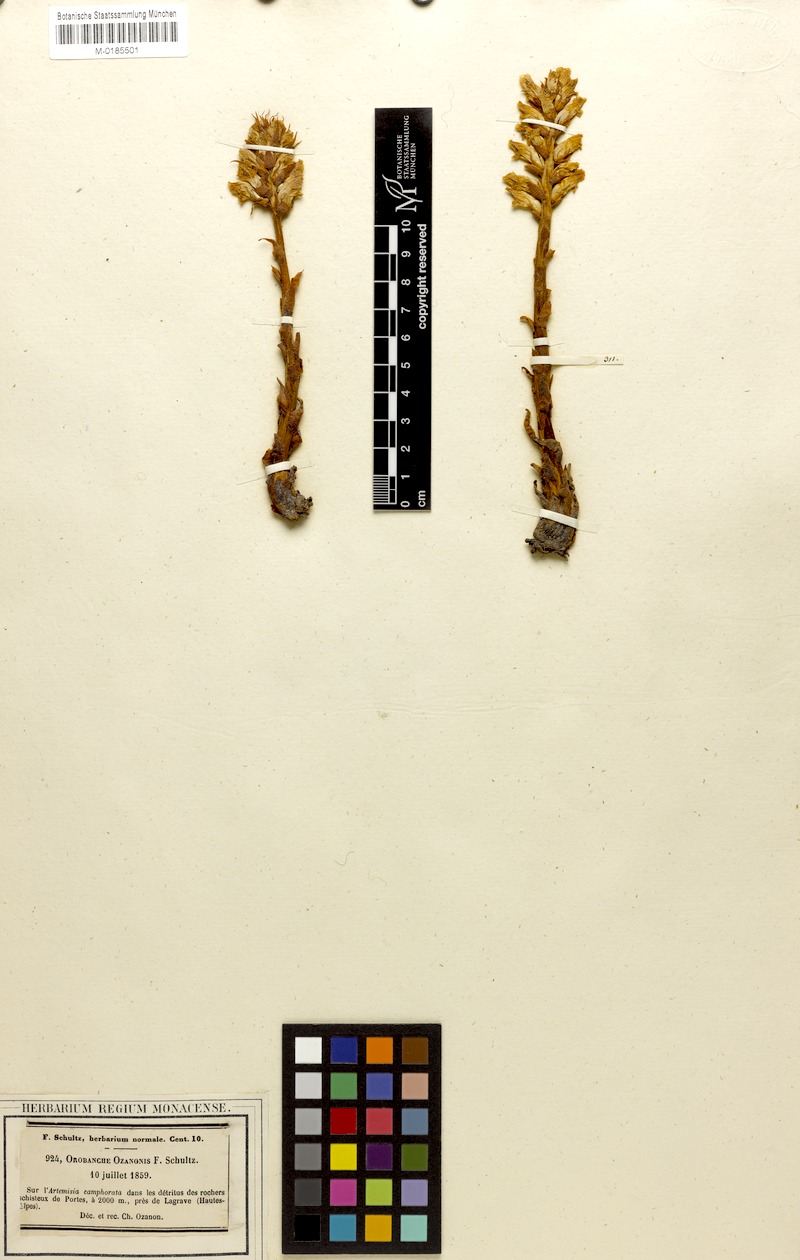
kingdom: Plantae
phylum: Tracheophyta
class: Magnoliopsida
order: Lamiales
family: Orobanchaceae
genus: Orobanche
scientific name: Orobanche artemisiae-campestris
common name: Oxtongue broomrape
